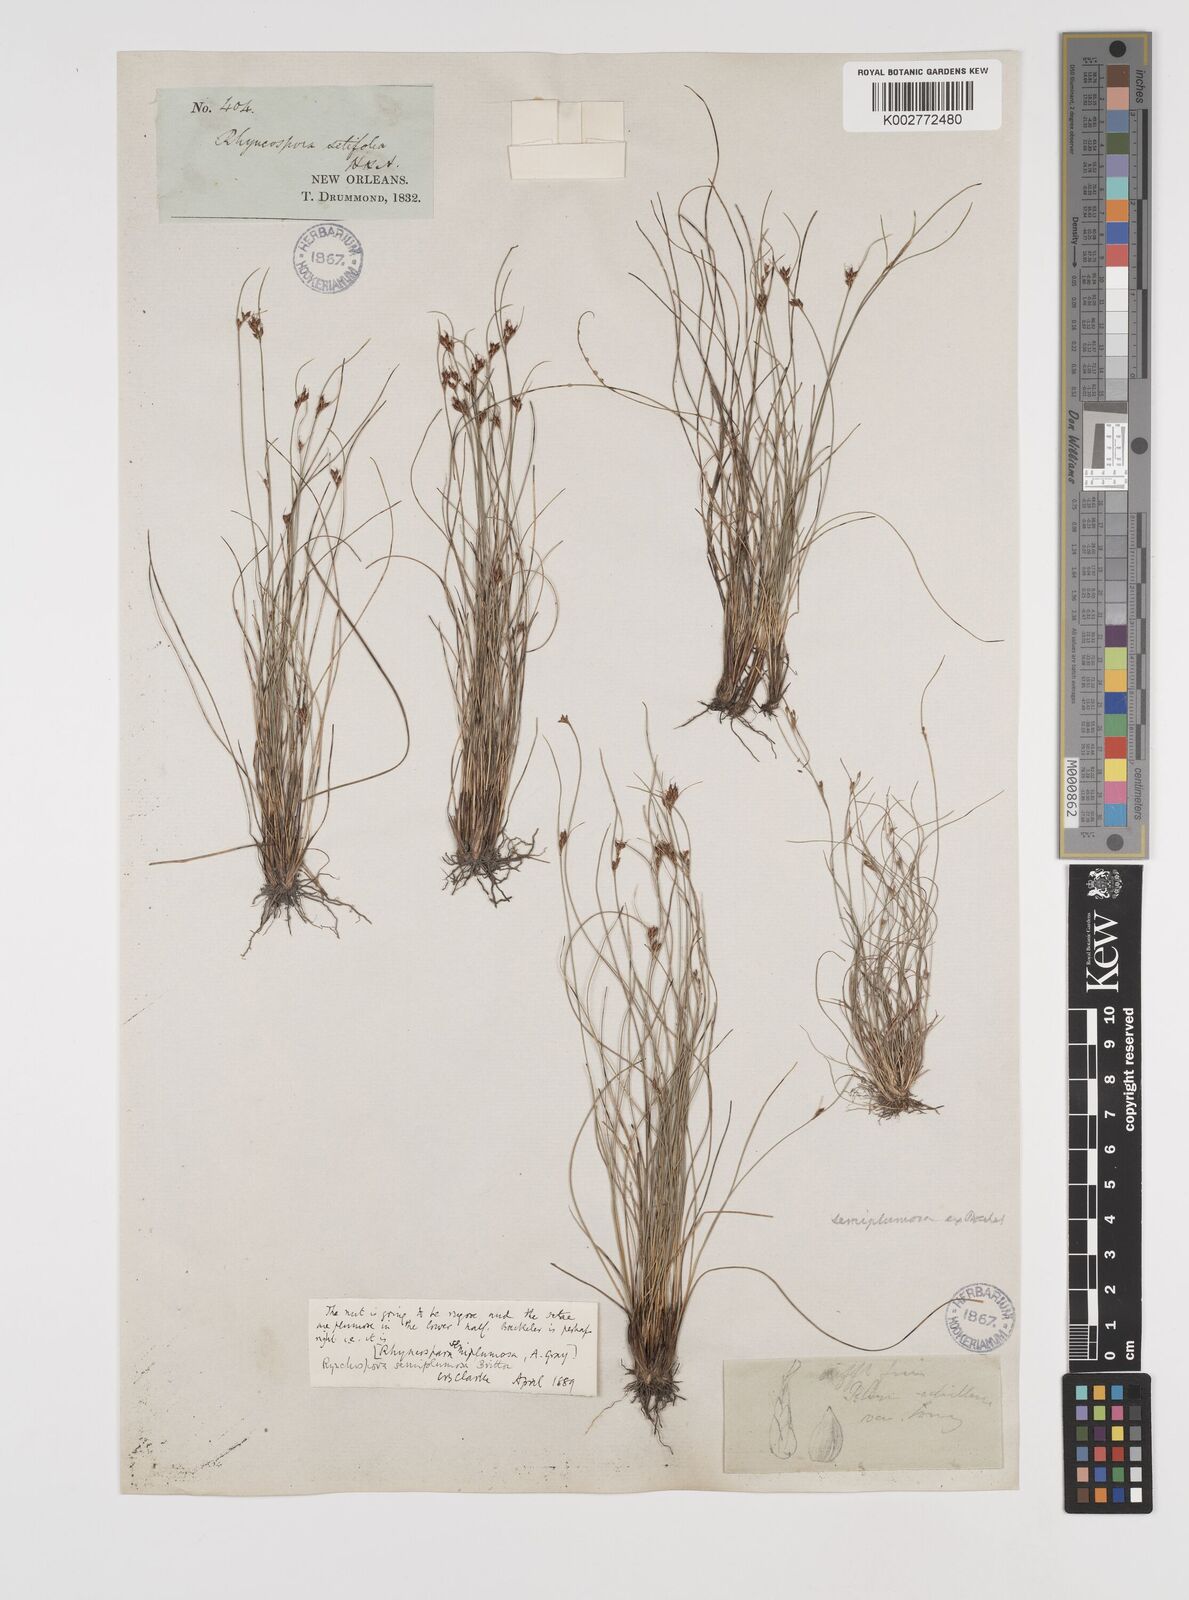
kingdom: Plantae
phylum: Tracheophyta
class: Liliopsida
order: Poales
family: Cyperaceae
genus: Rhynchospora
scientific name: Rhynchospora plumosa
